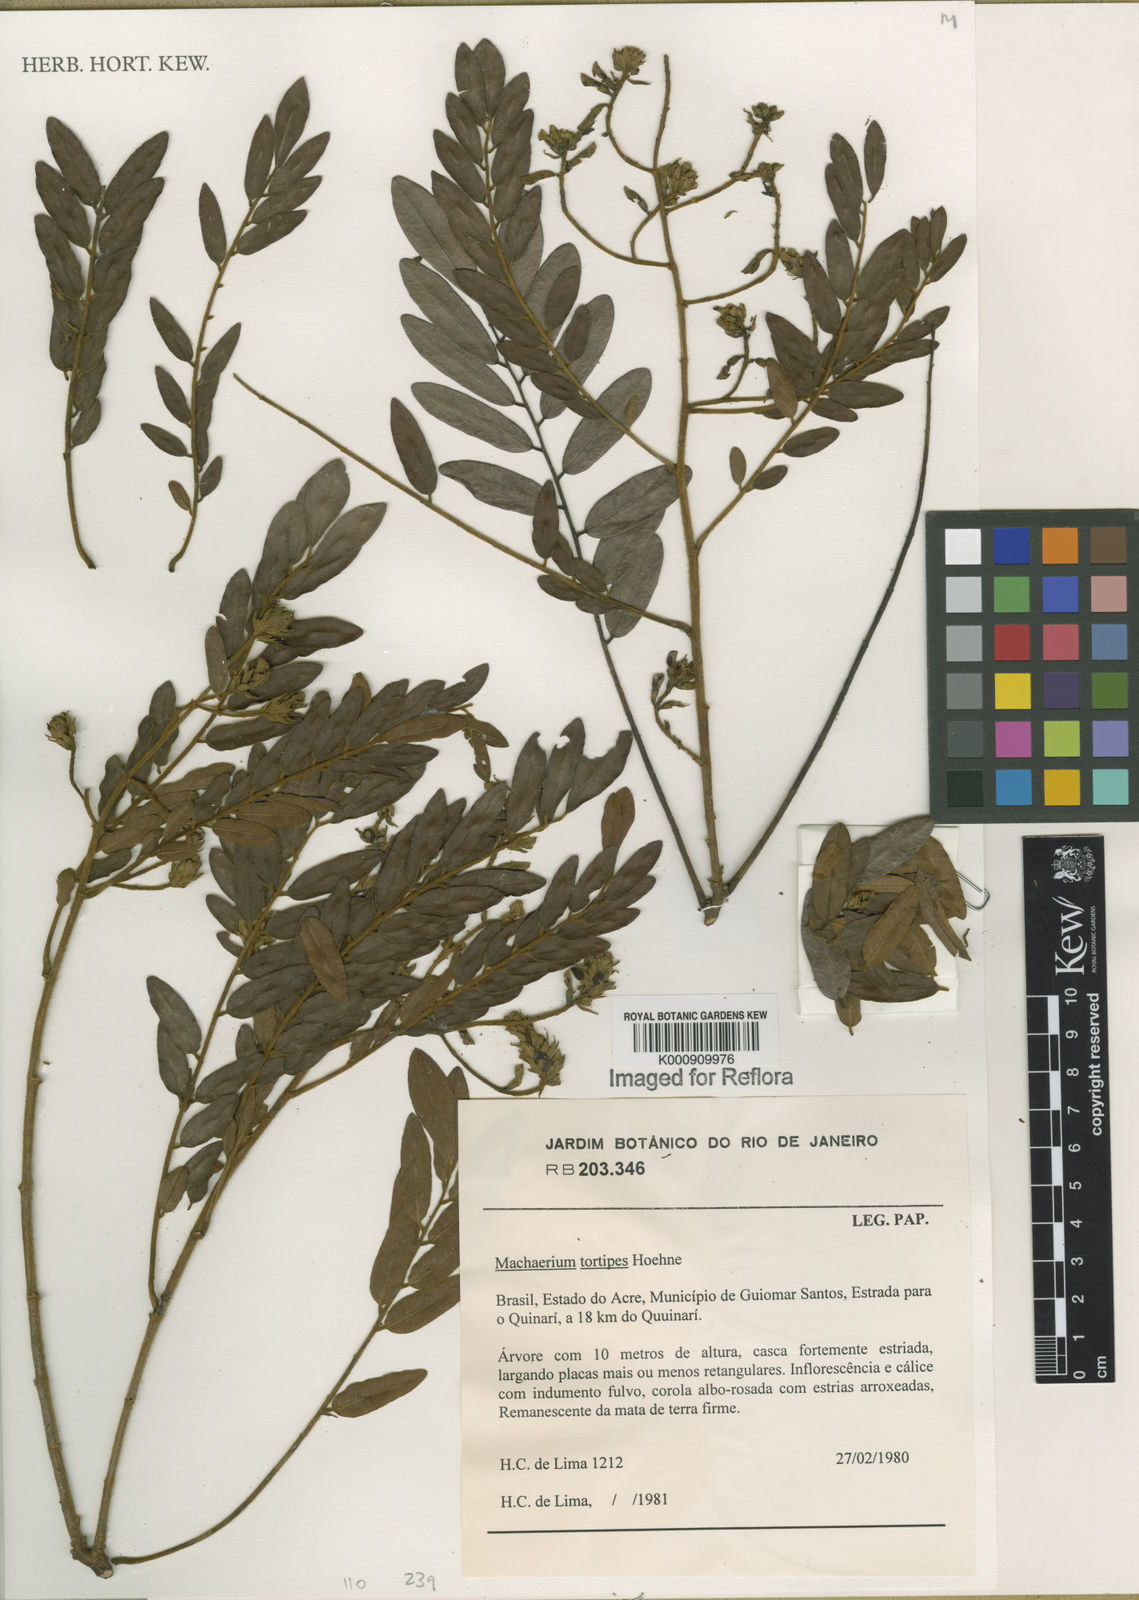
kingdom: Plantae
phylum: Tracheophyta
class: Magnoliopsida
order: Fabales
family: Fabaceae
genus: Machaerium
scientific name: Machaerium tortipes
